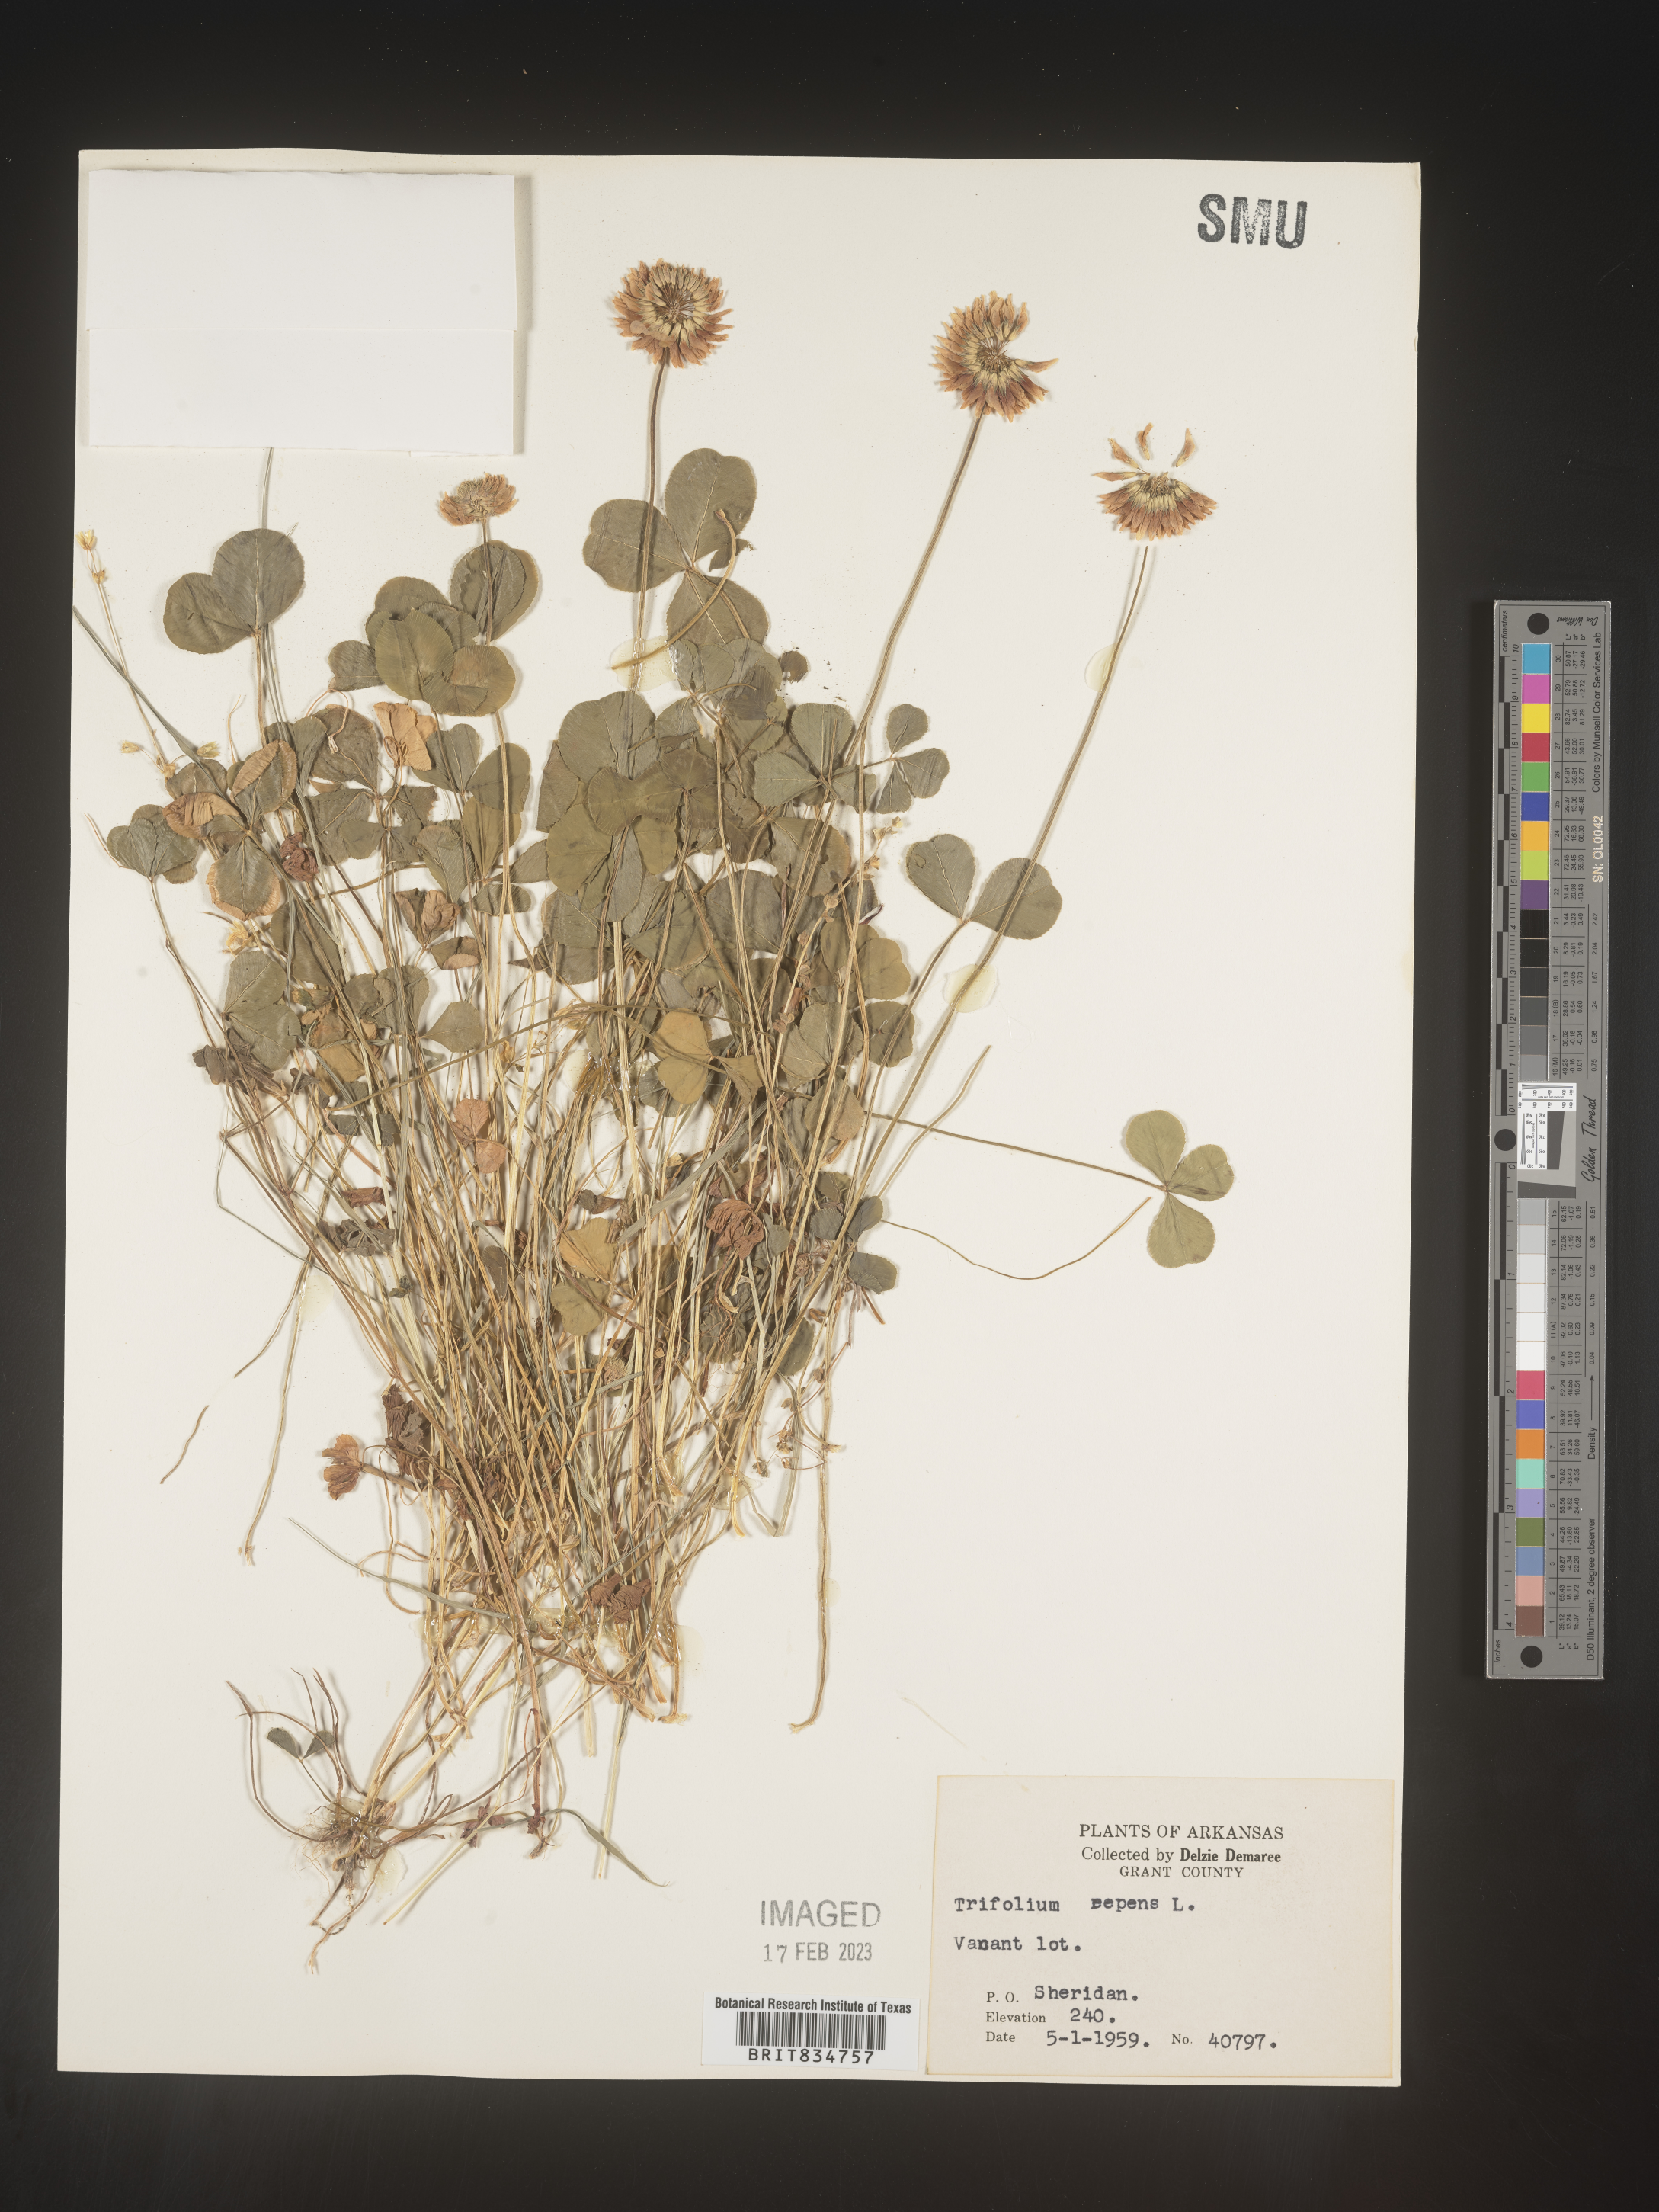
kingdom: Plantae
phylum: Tracheophyta
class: Magnoliopsida
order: Fabales
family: Fabaceae
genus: Trifolium
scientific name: Trifolium repens
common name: White clover
